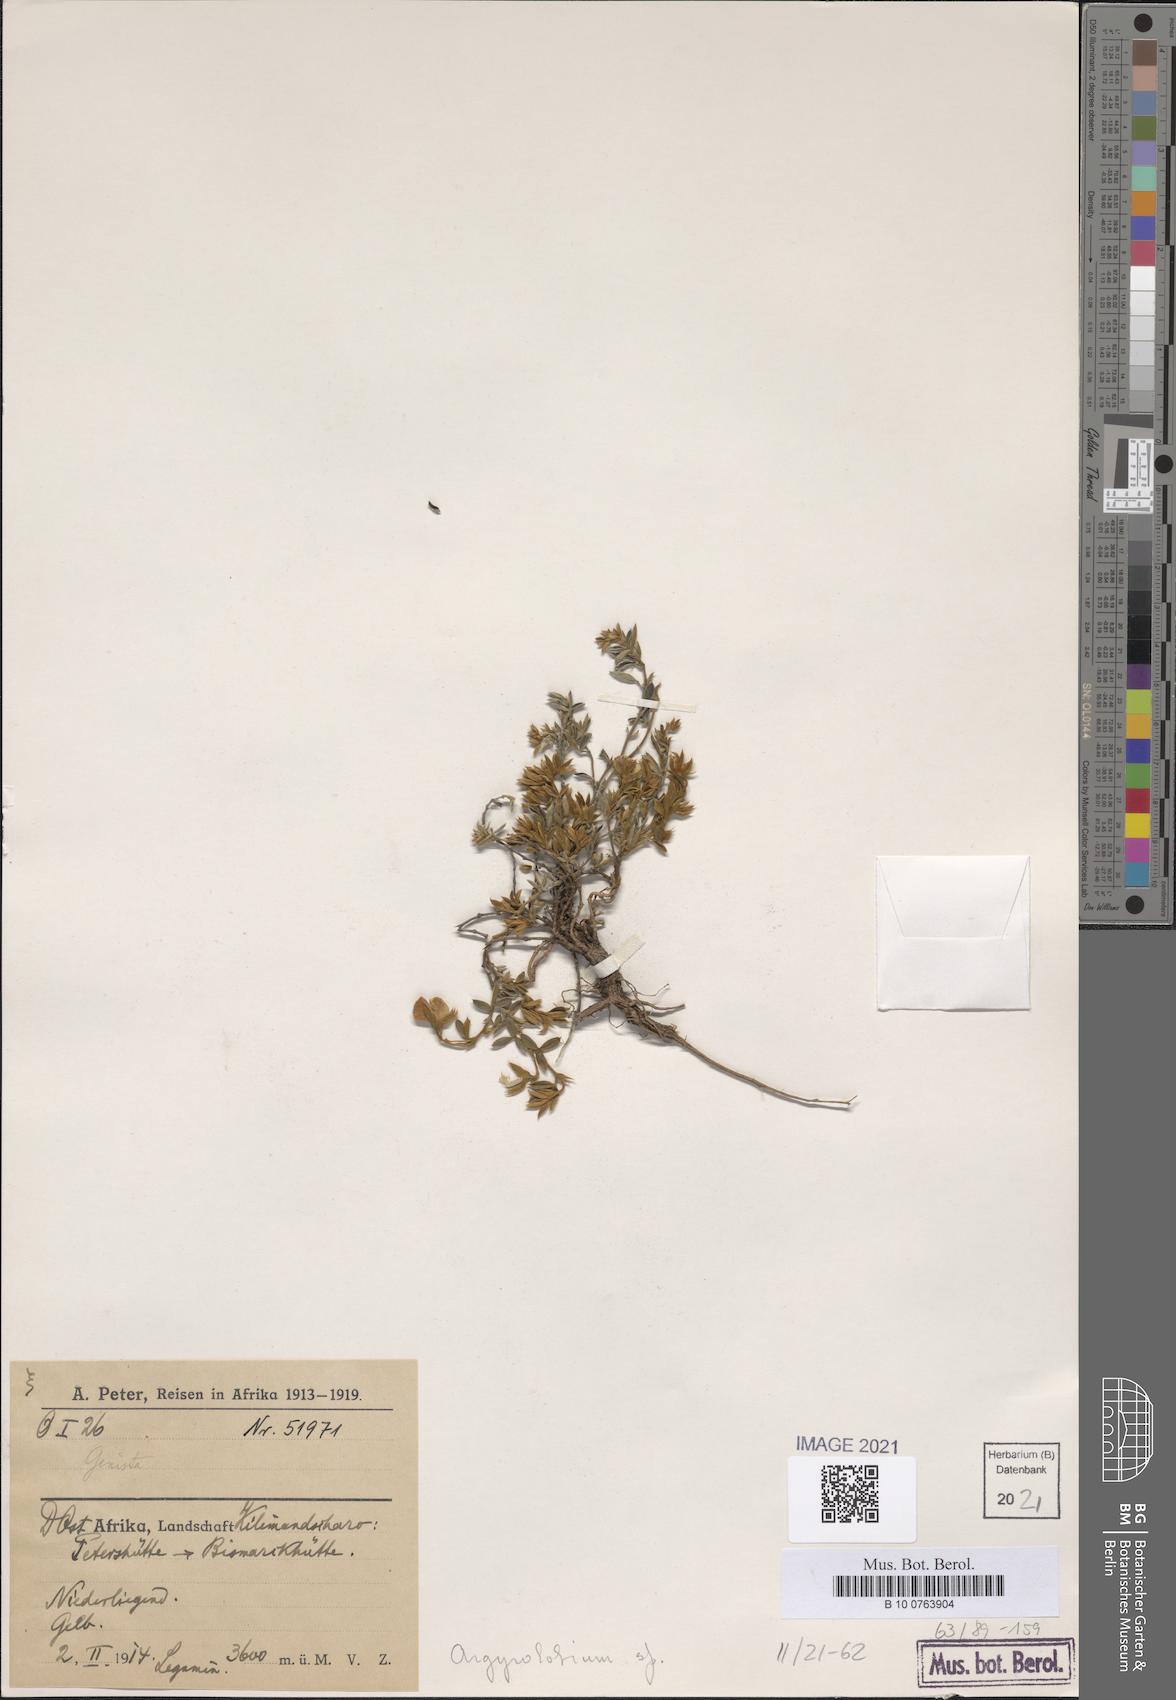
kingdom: Plantae
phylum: Tracheophyta
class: Magnoliopsida
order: Fabales
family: Fabaceae
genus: Argyrolobium
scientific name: Argyrolobium
